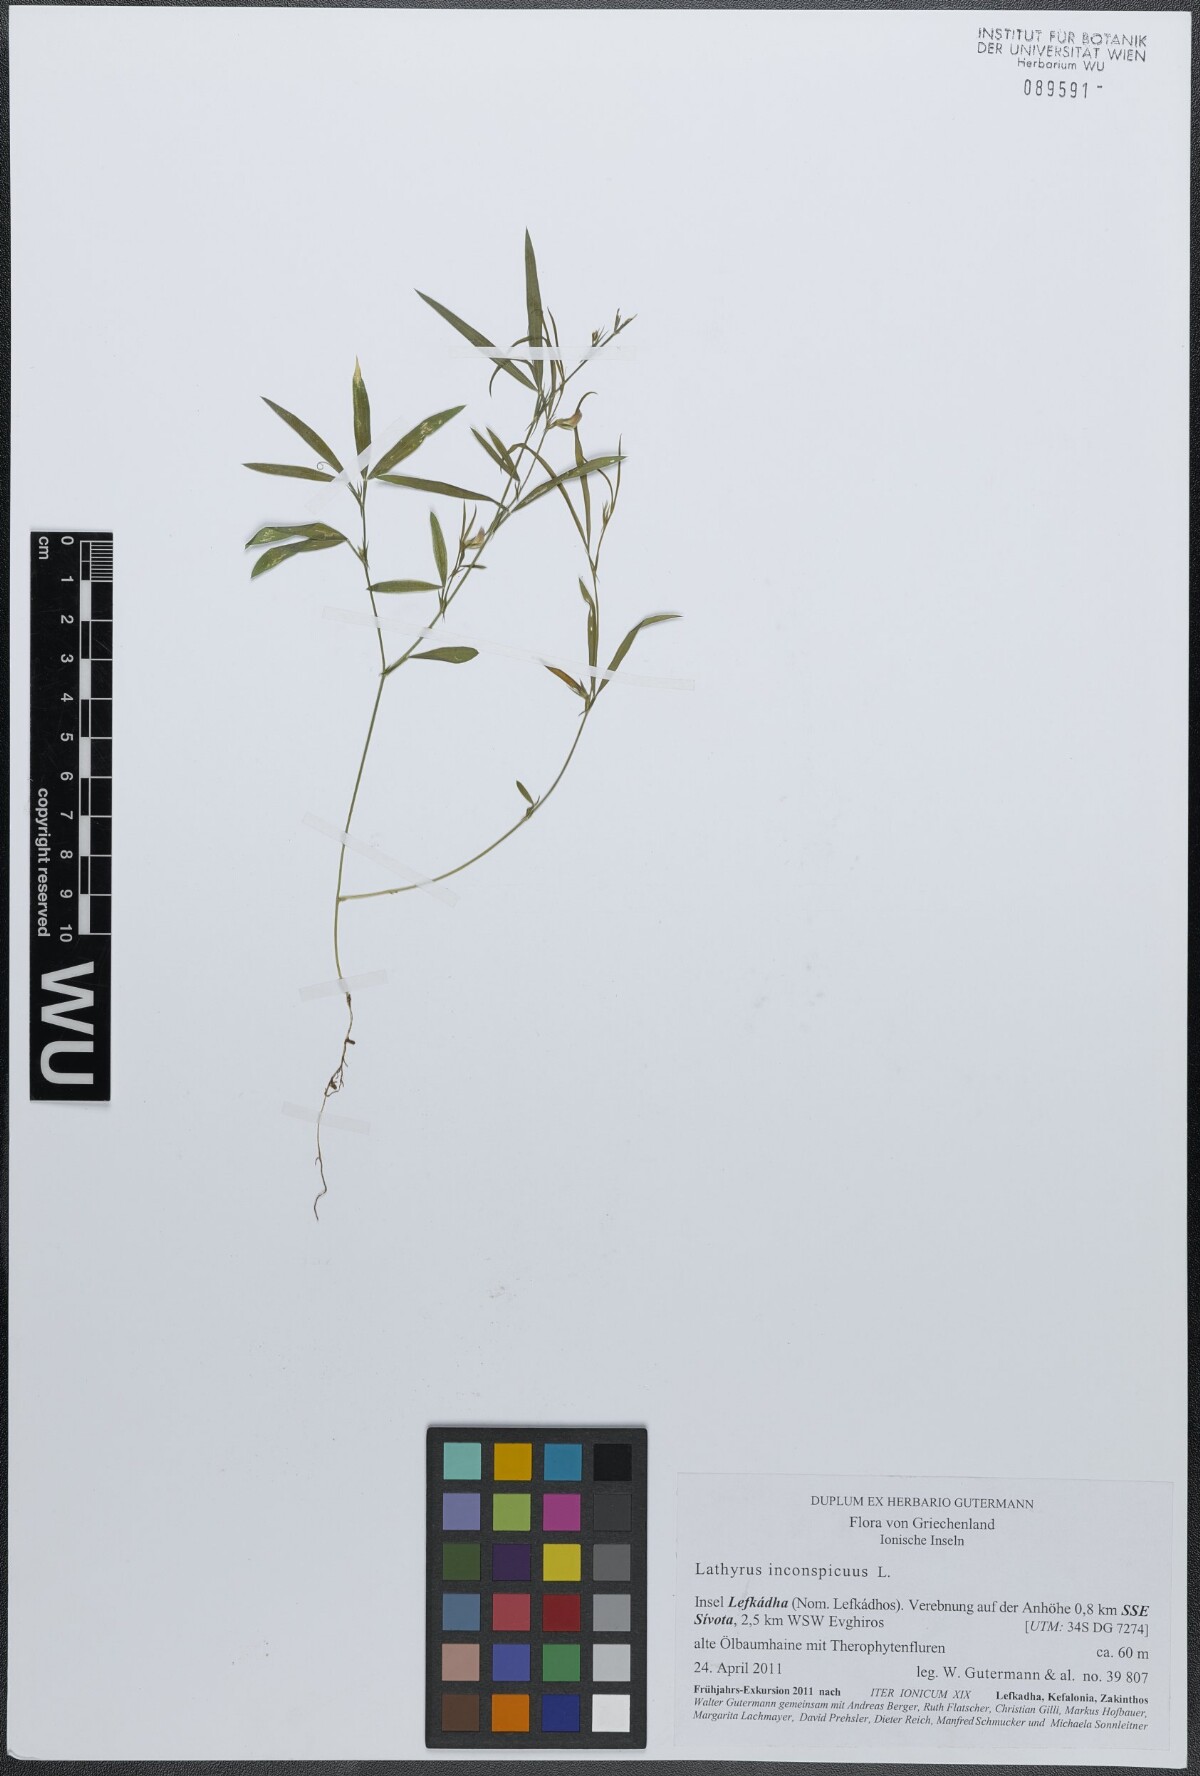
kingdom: Plantae
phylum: Tracheophyta
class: Magnoliopsida
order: Fabales
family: Fabaceae
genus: Lathyrus
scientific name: Lathyrus inconspicuus
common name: Inconspicuous pea
